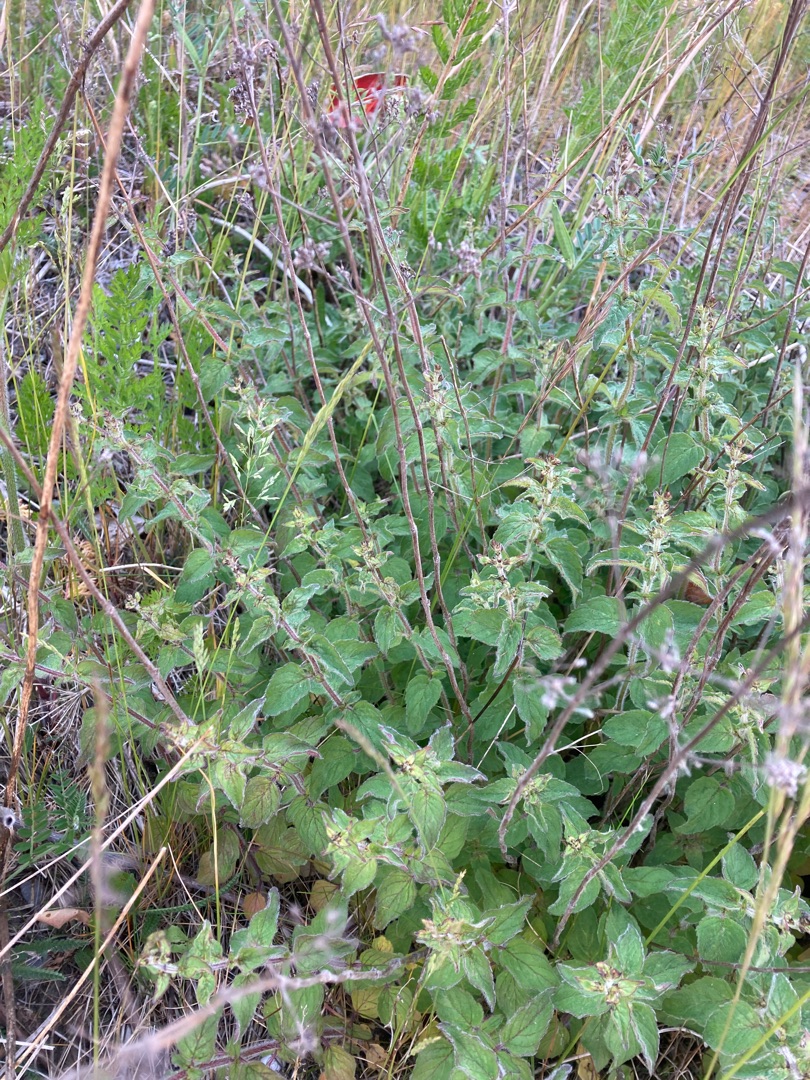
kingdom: Plantae
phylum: Tracheophyta
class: Magnoliopsida
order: Lamiales
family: Lamiaceae
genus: Origanum
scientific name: Origanum vulgare
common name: Merian
